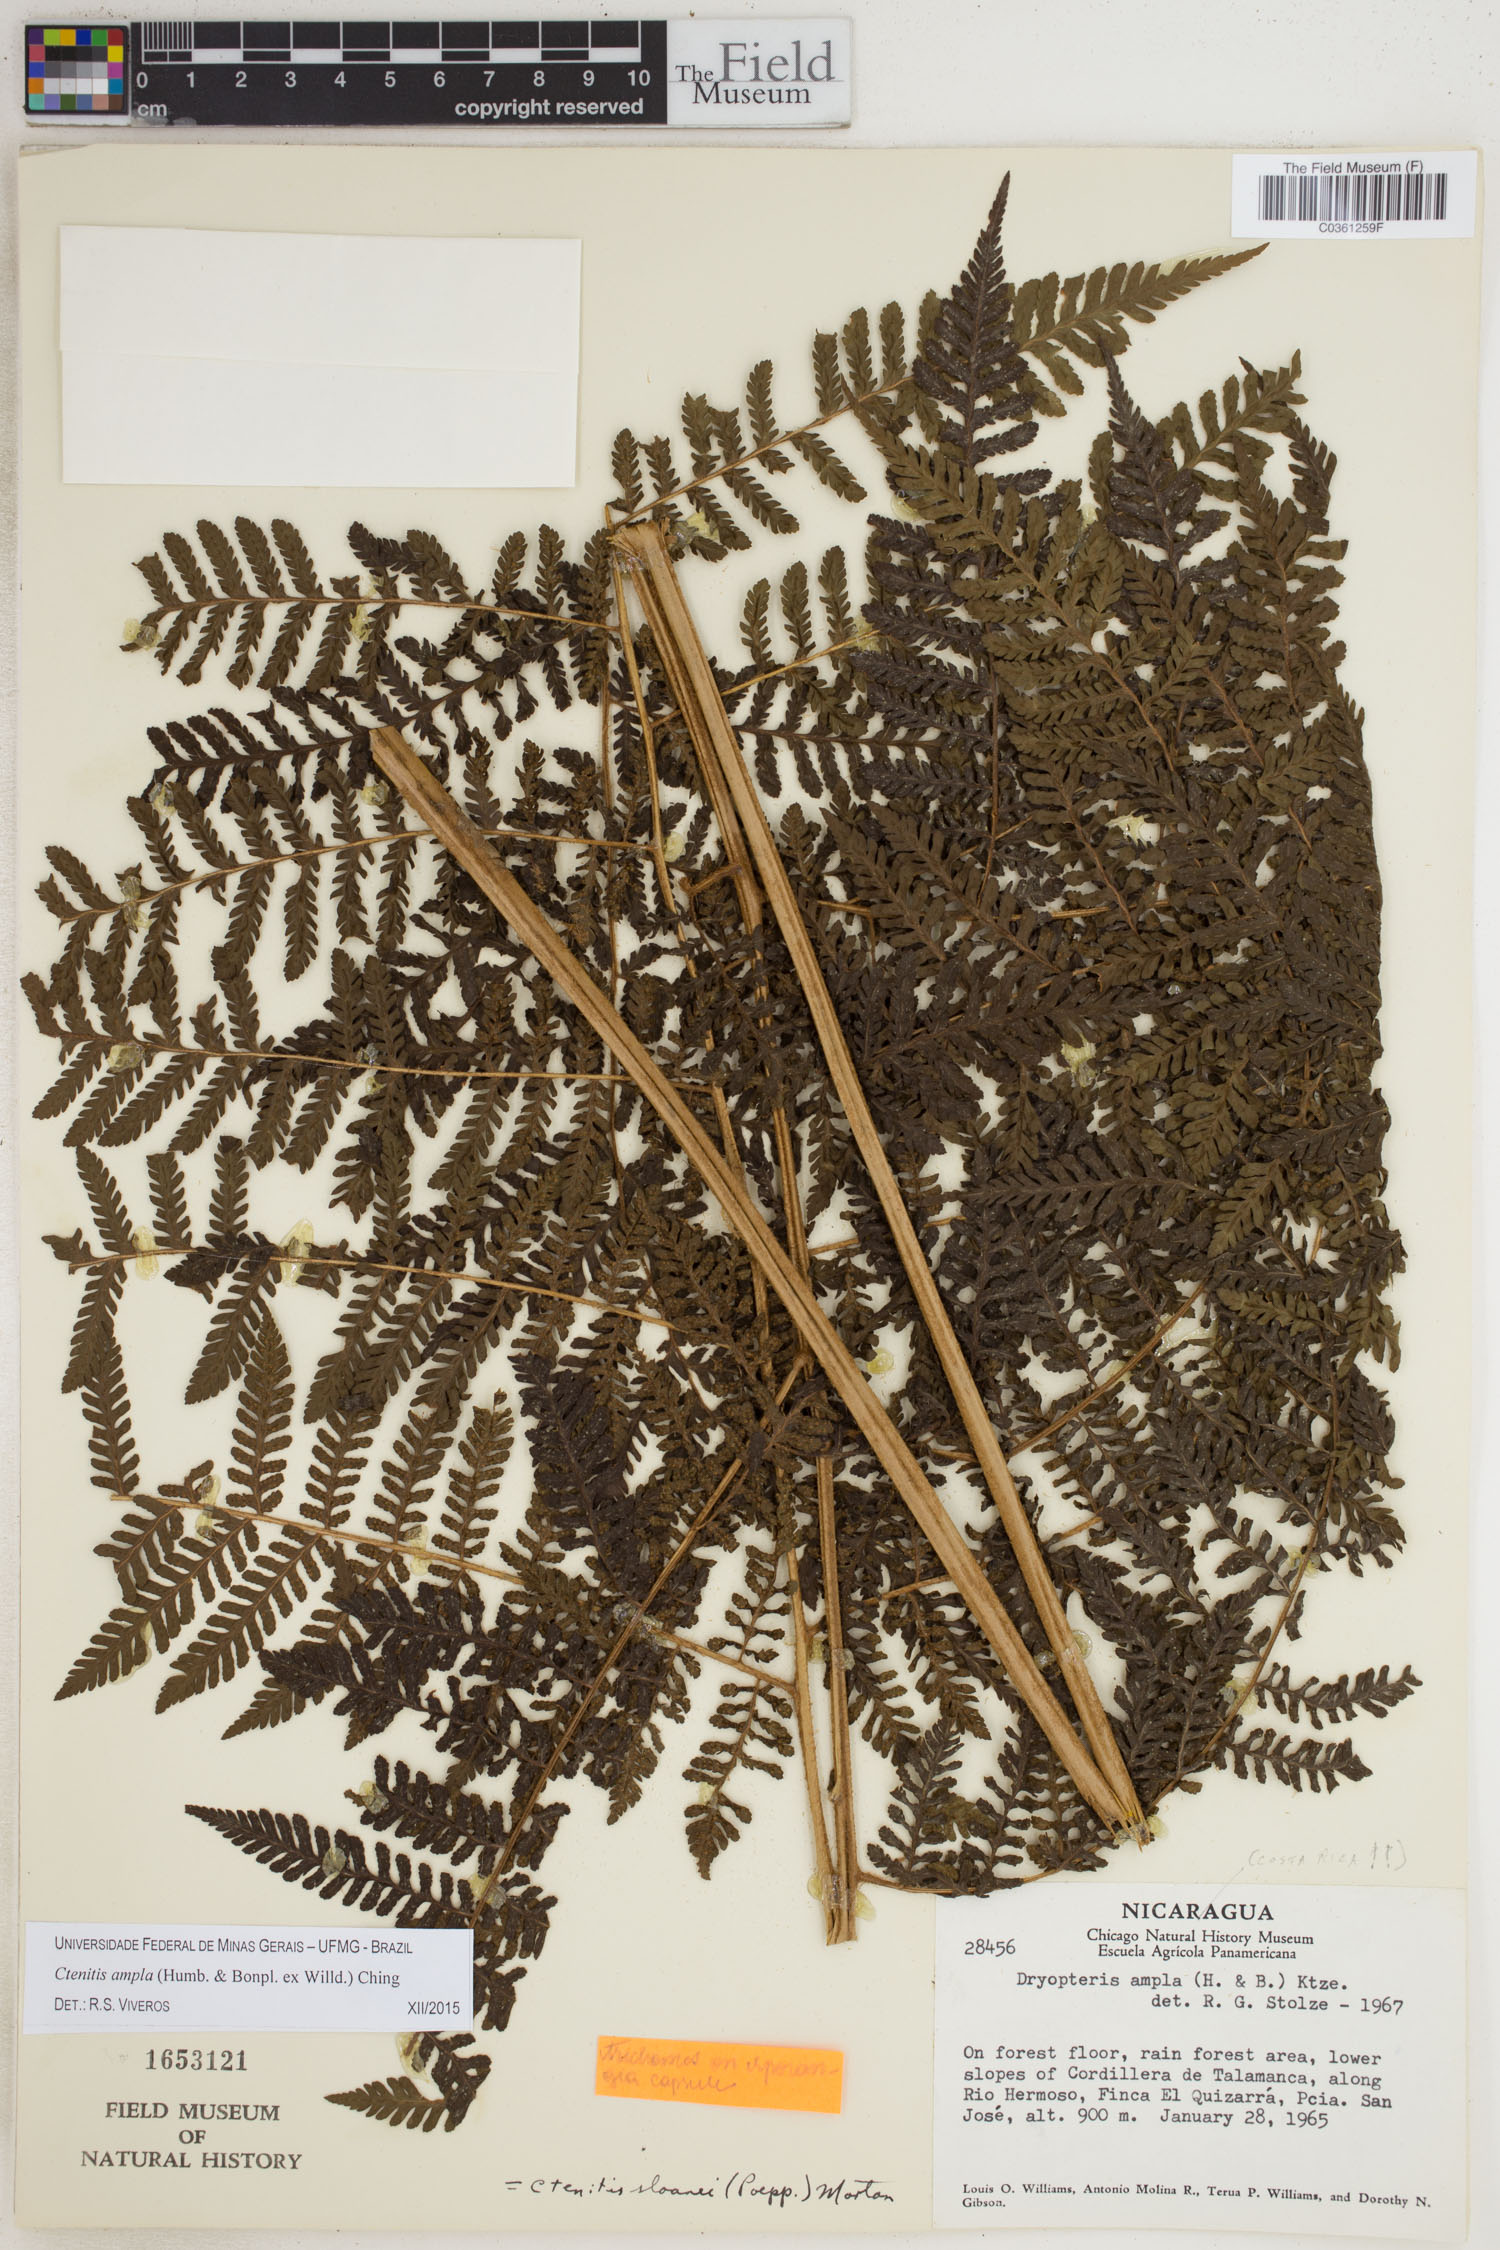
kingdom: Plantae
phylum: Tracheophyta
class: Polypodiopsida
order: Polypodiales
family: Dryopteridaceae
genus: Ctenitis
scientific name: Ctenitis sloanei
